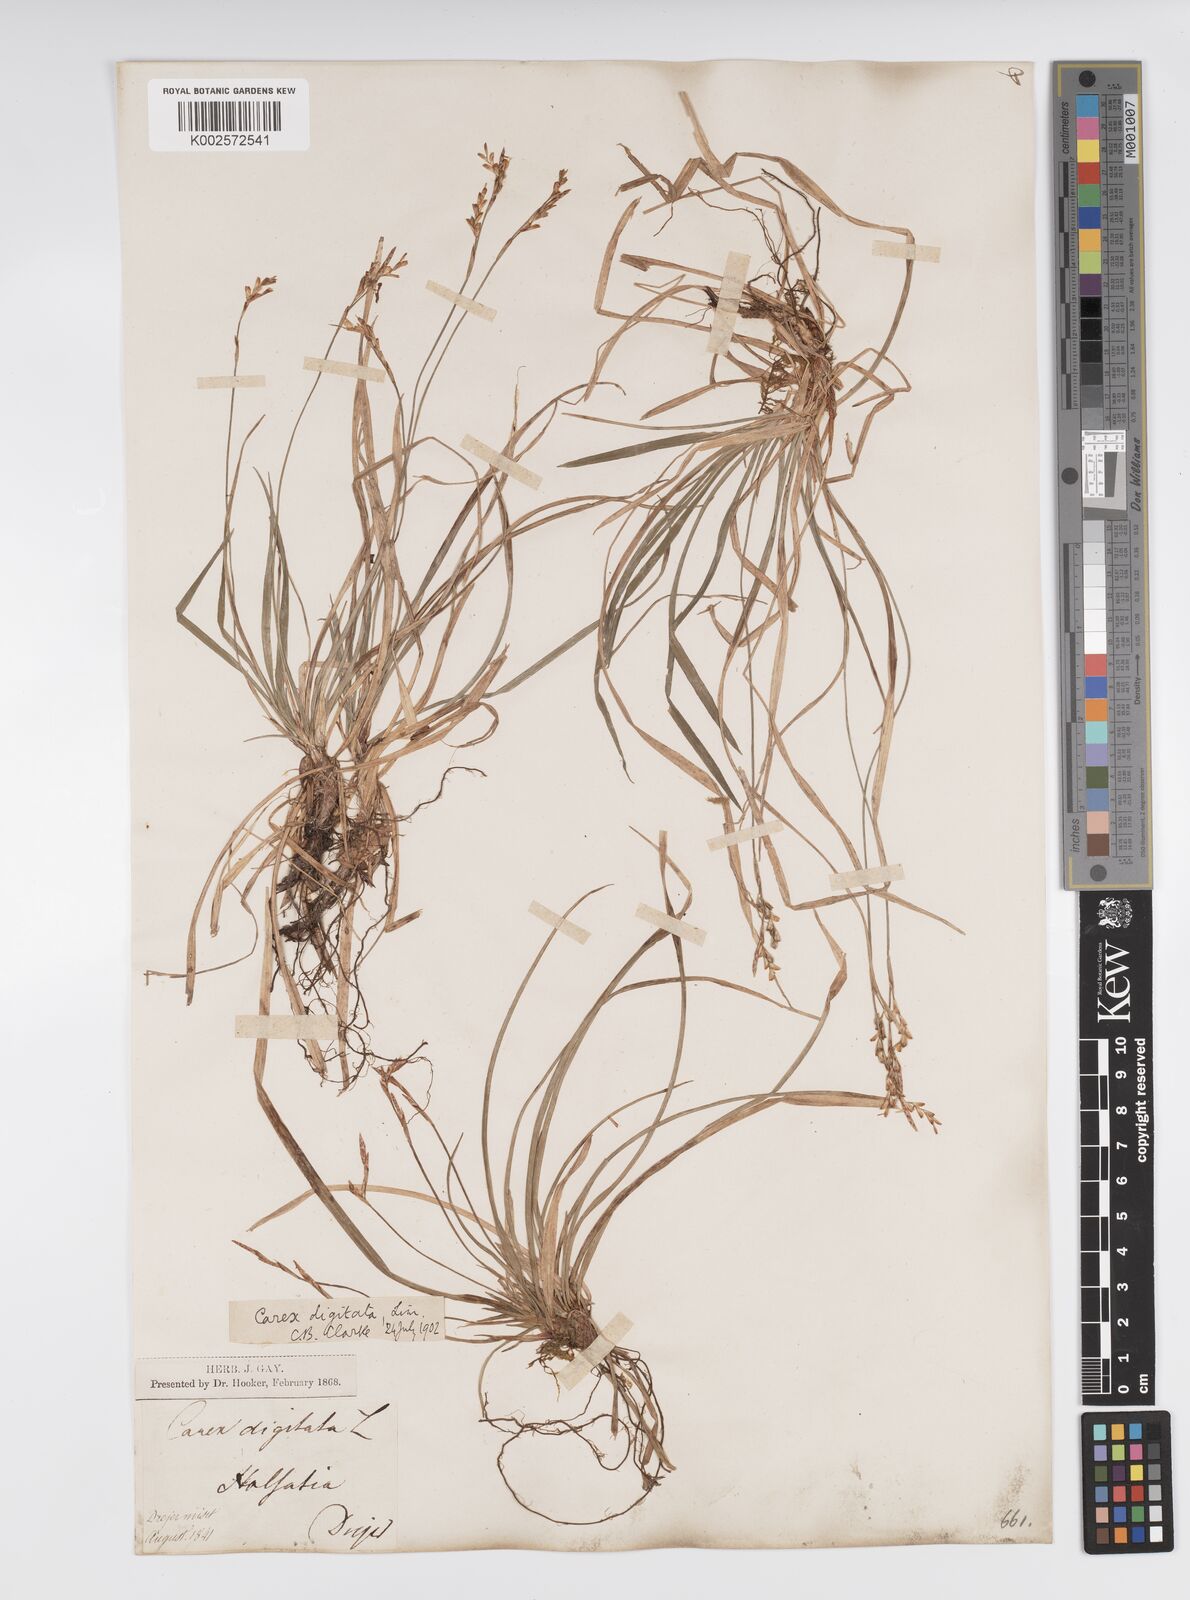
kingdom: Plantae
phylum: Tracheophyta
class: Liliopsida
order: Poales
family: Cyperaceae
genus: Carex
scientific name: Carex digitata
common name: Fingered sedge
